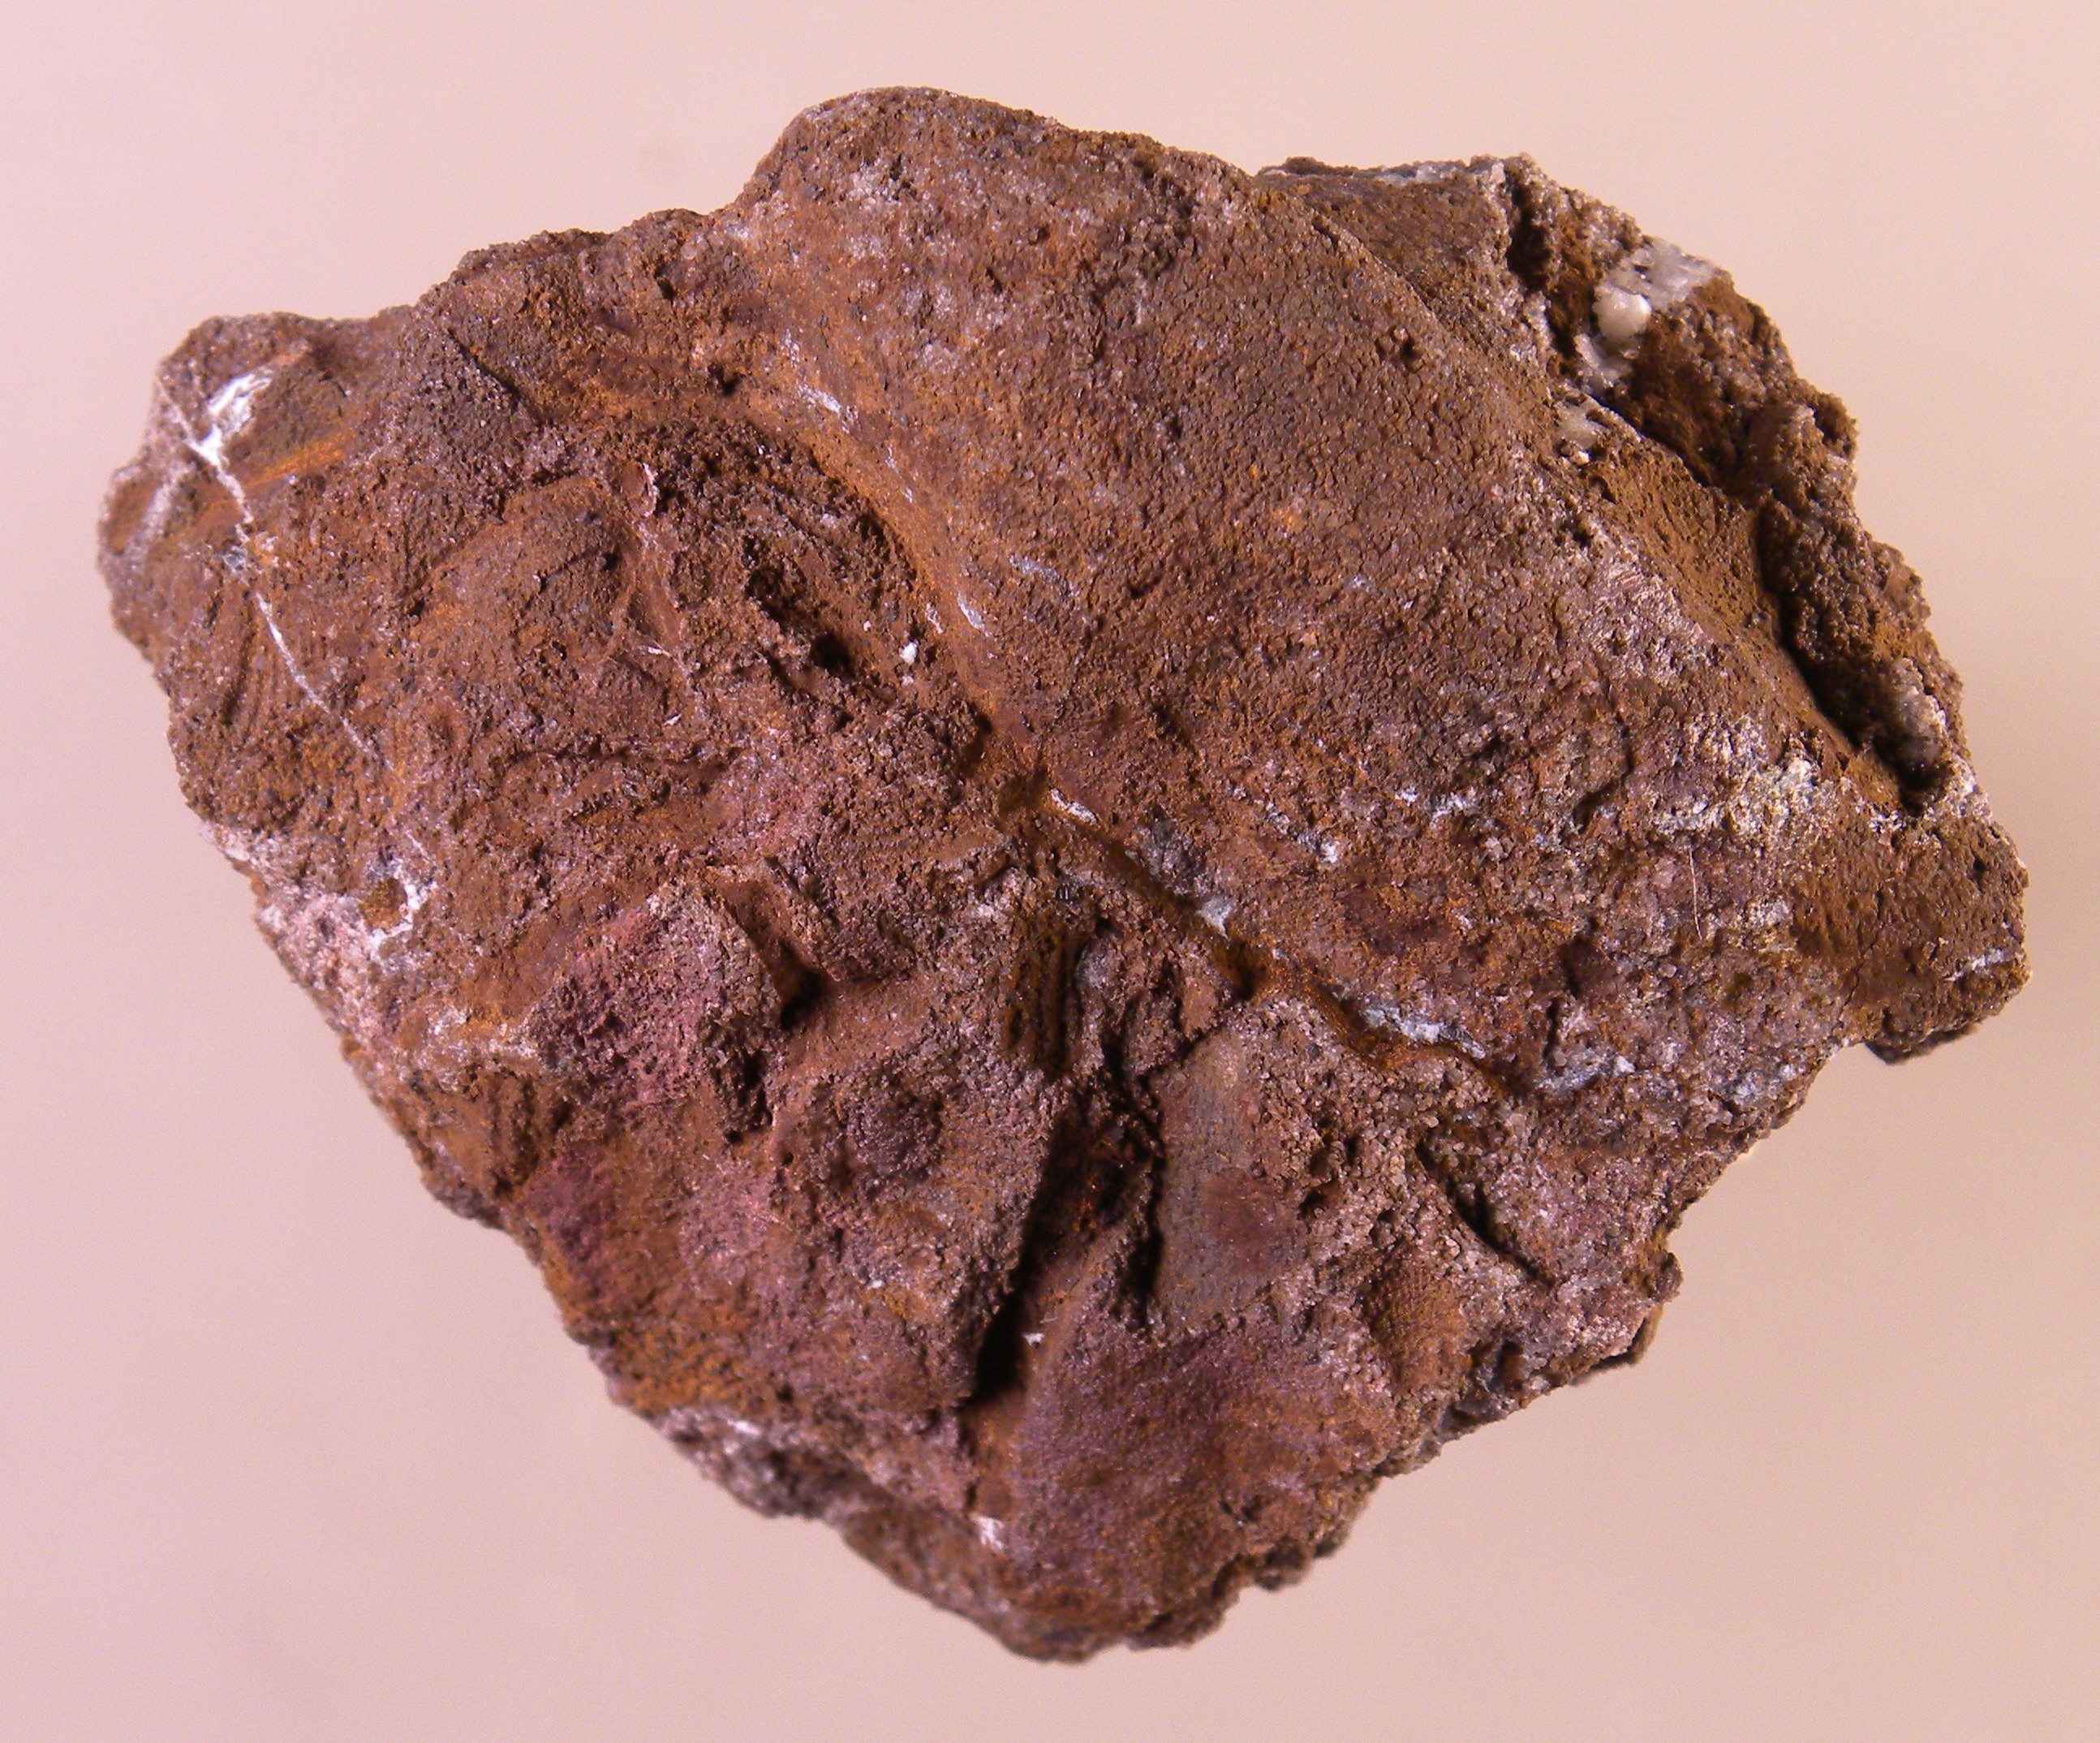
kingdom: Animalia
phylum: Mollusca
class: Bivalvia
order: Ostreida
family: Pterineidae
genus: Leptodesma
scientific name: Leptodesma
